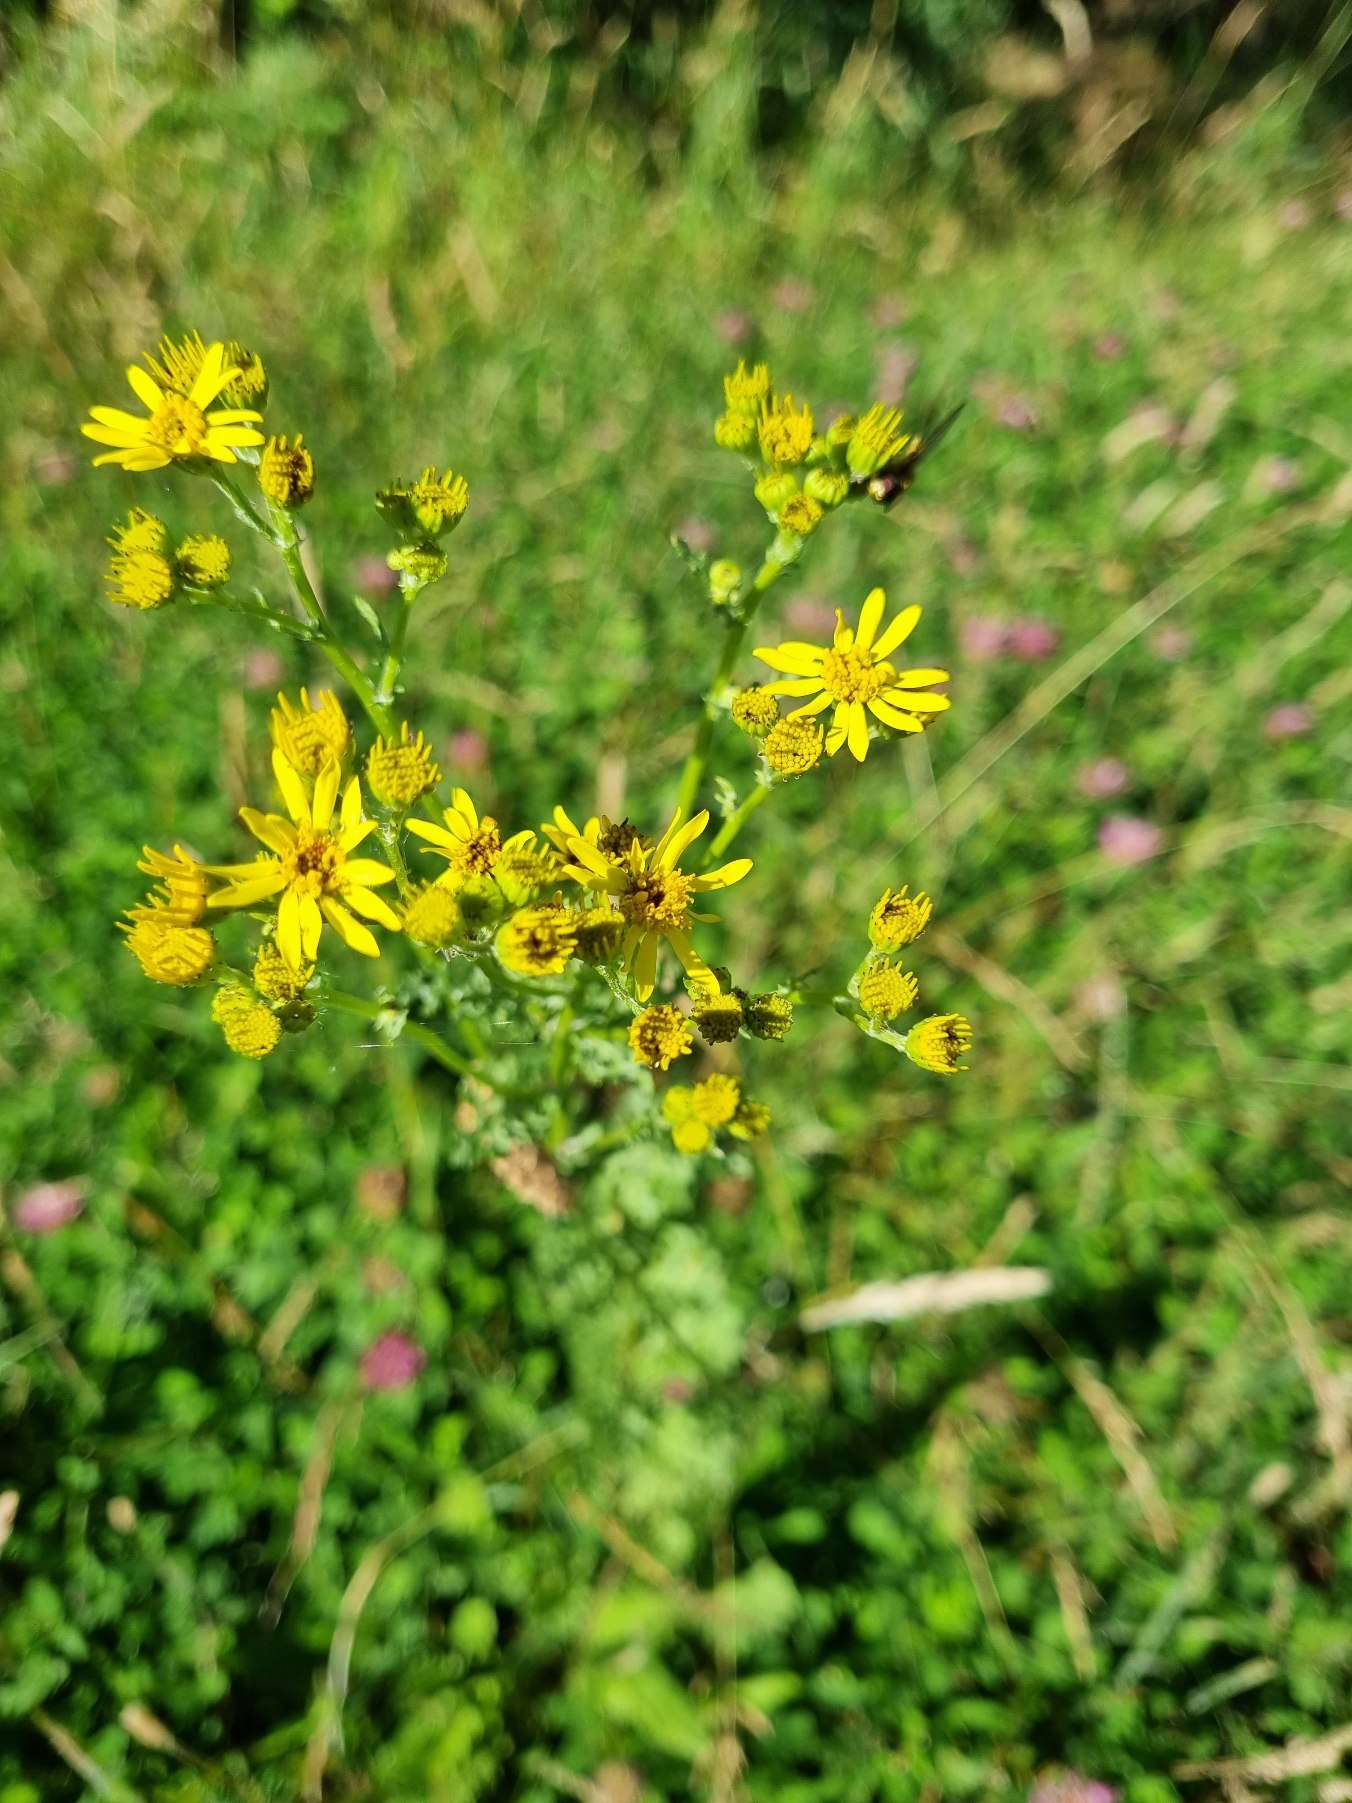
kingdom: Plantae
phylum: Tracheophyta
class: Magnoliopsida
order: Asterales
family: Asteraceae
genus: Jacobaea
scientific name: Jacobaea vulgaris
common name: Eng-brandbæger
